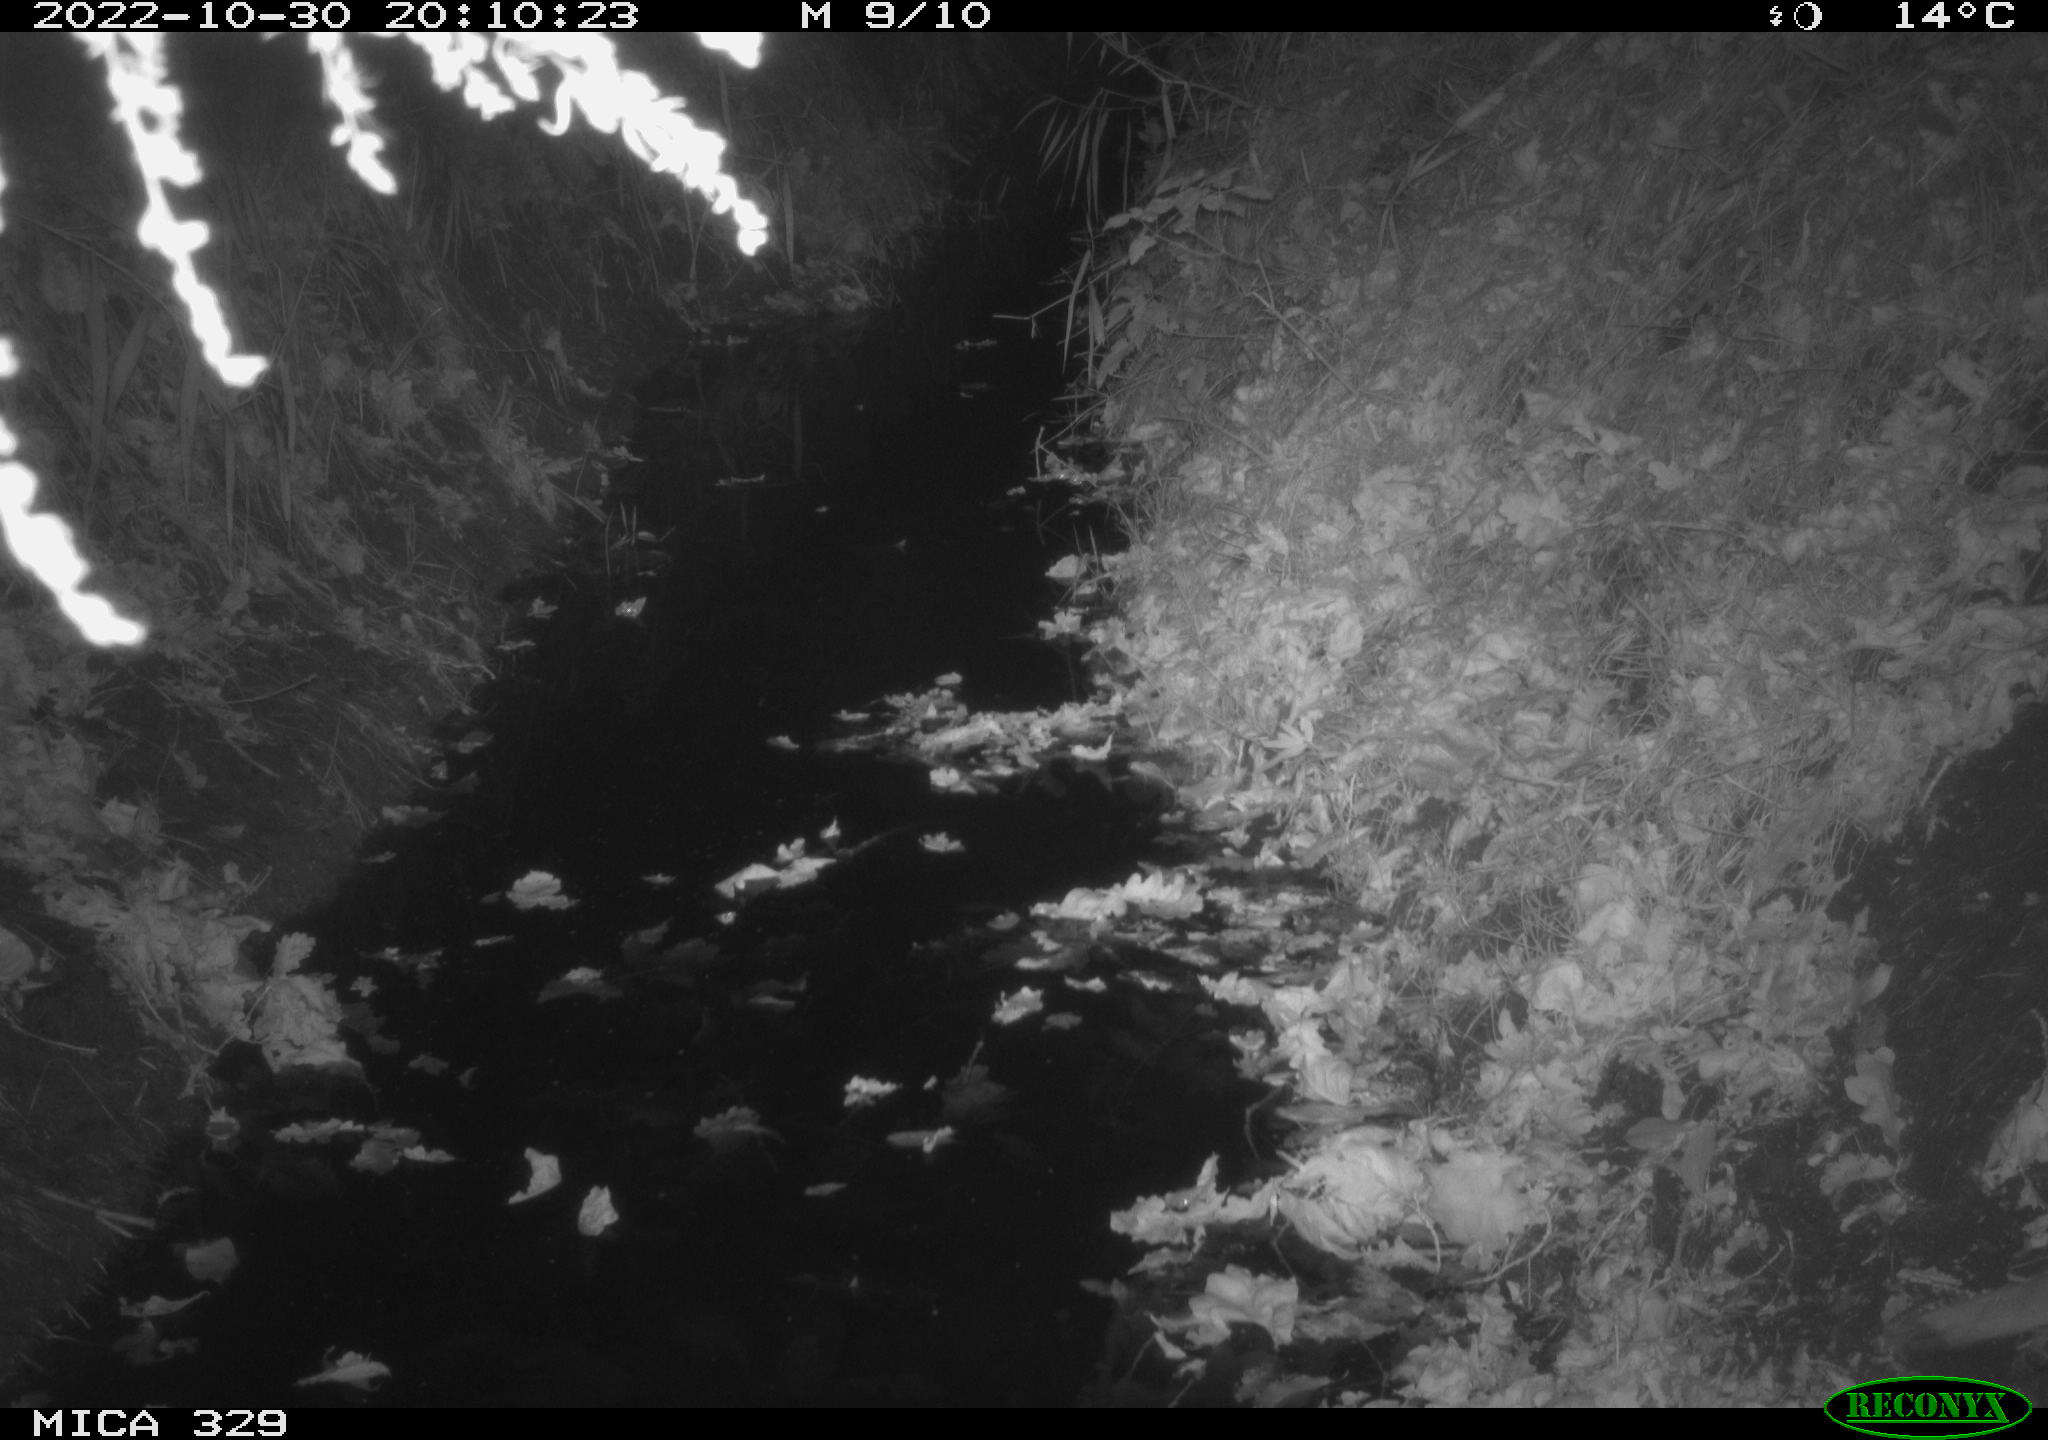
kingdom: Animalia
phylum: Chordata
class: Mammalia
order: Carnivora
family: Mustelidae
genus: Martes
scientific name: Martes foina
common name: Beech marten
